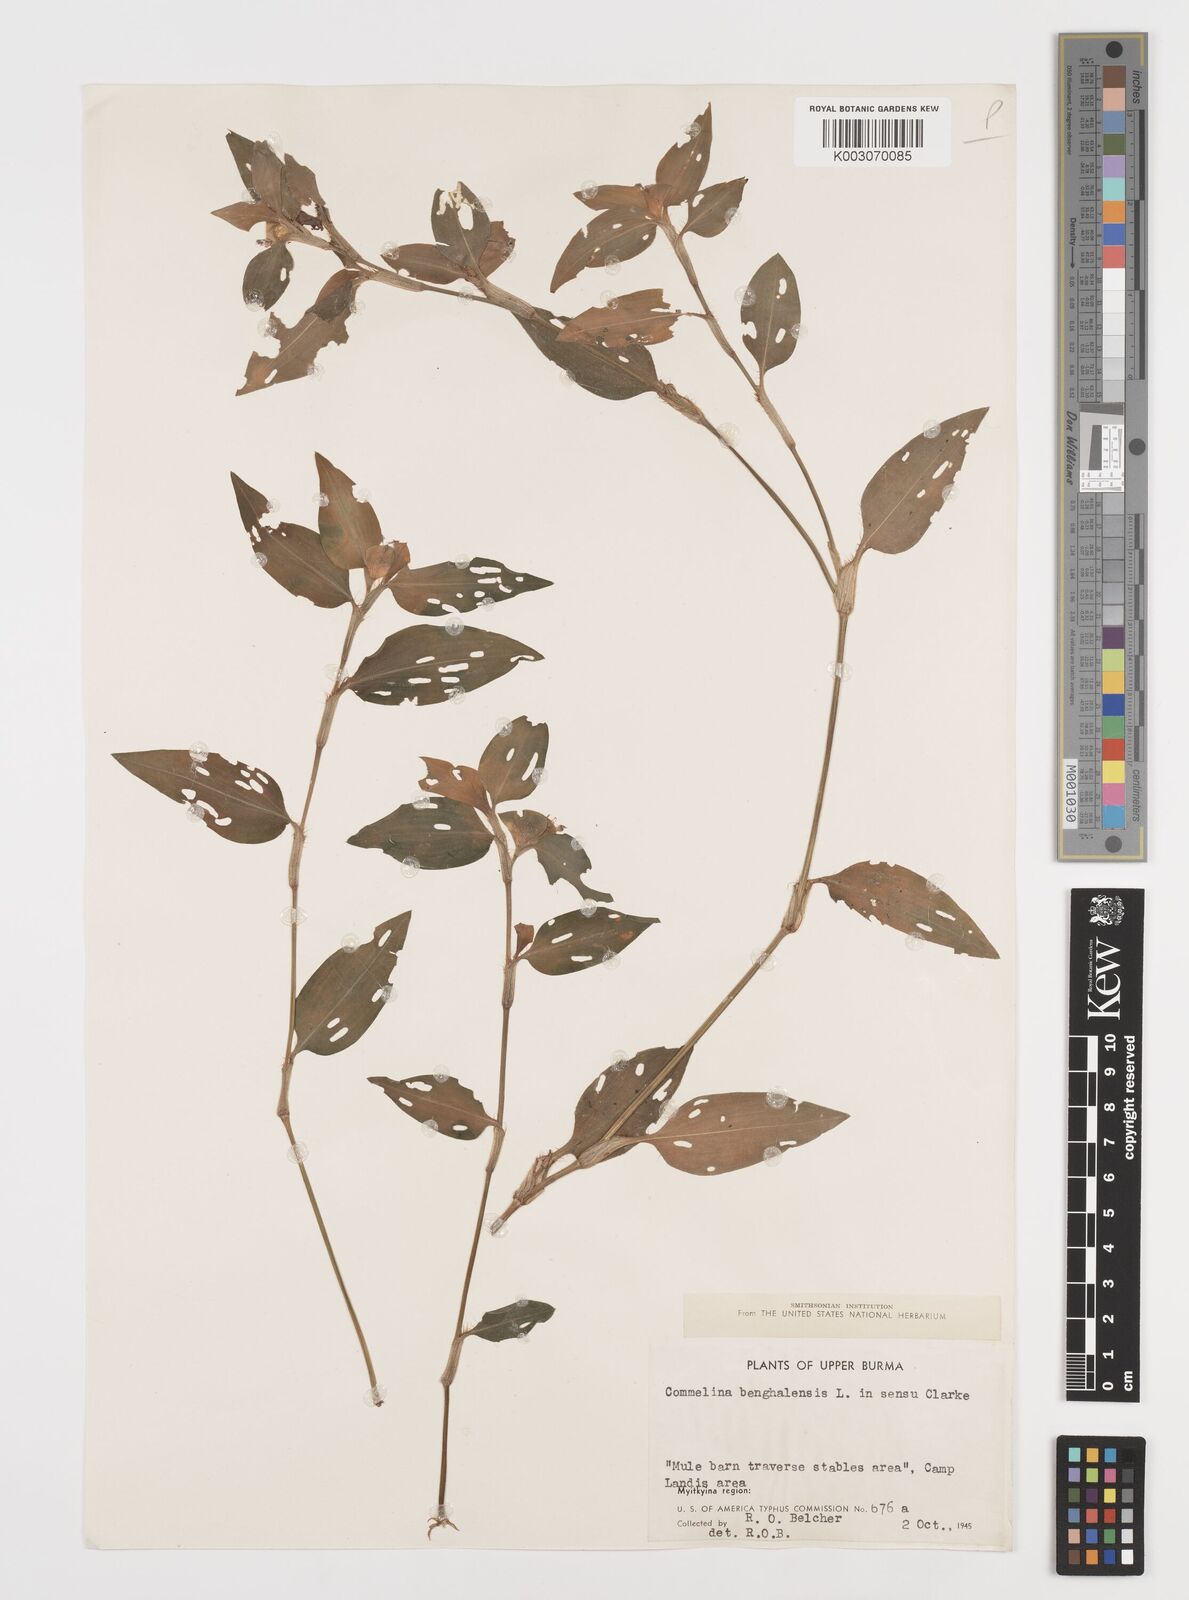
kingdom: Plantae
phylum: Tracheophyta
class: Liliopsida
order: Commelinales
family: Commelinaceae
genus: Commelina
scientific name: Commelina benghalensis
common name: Jio
